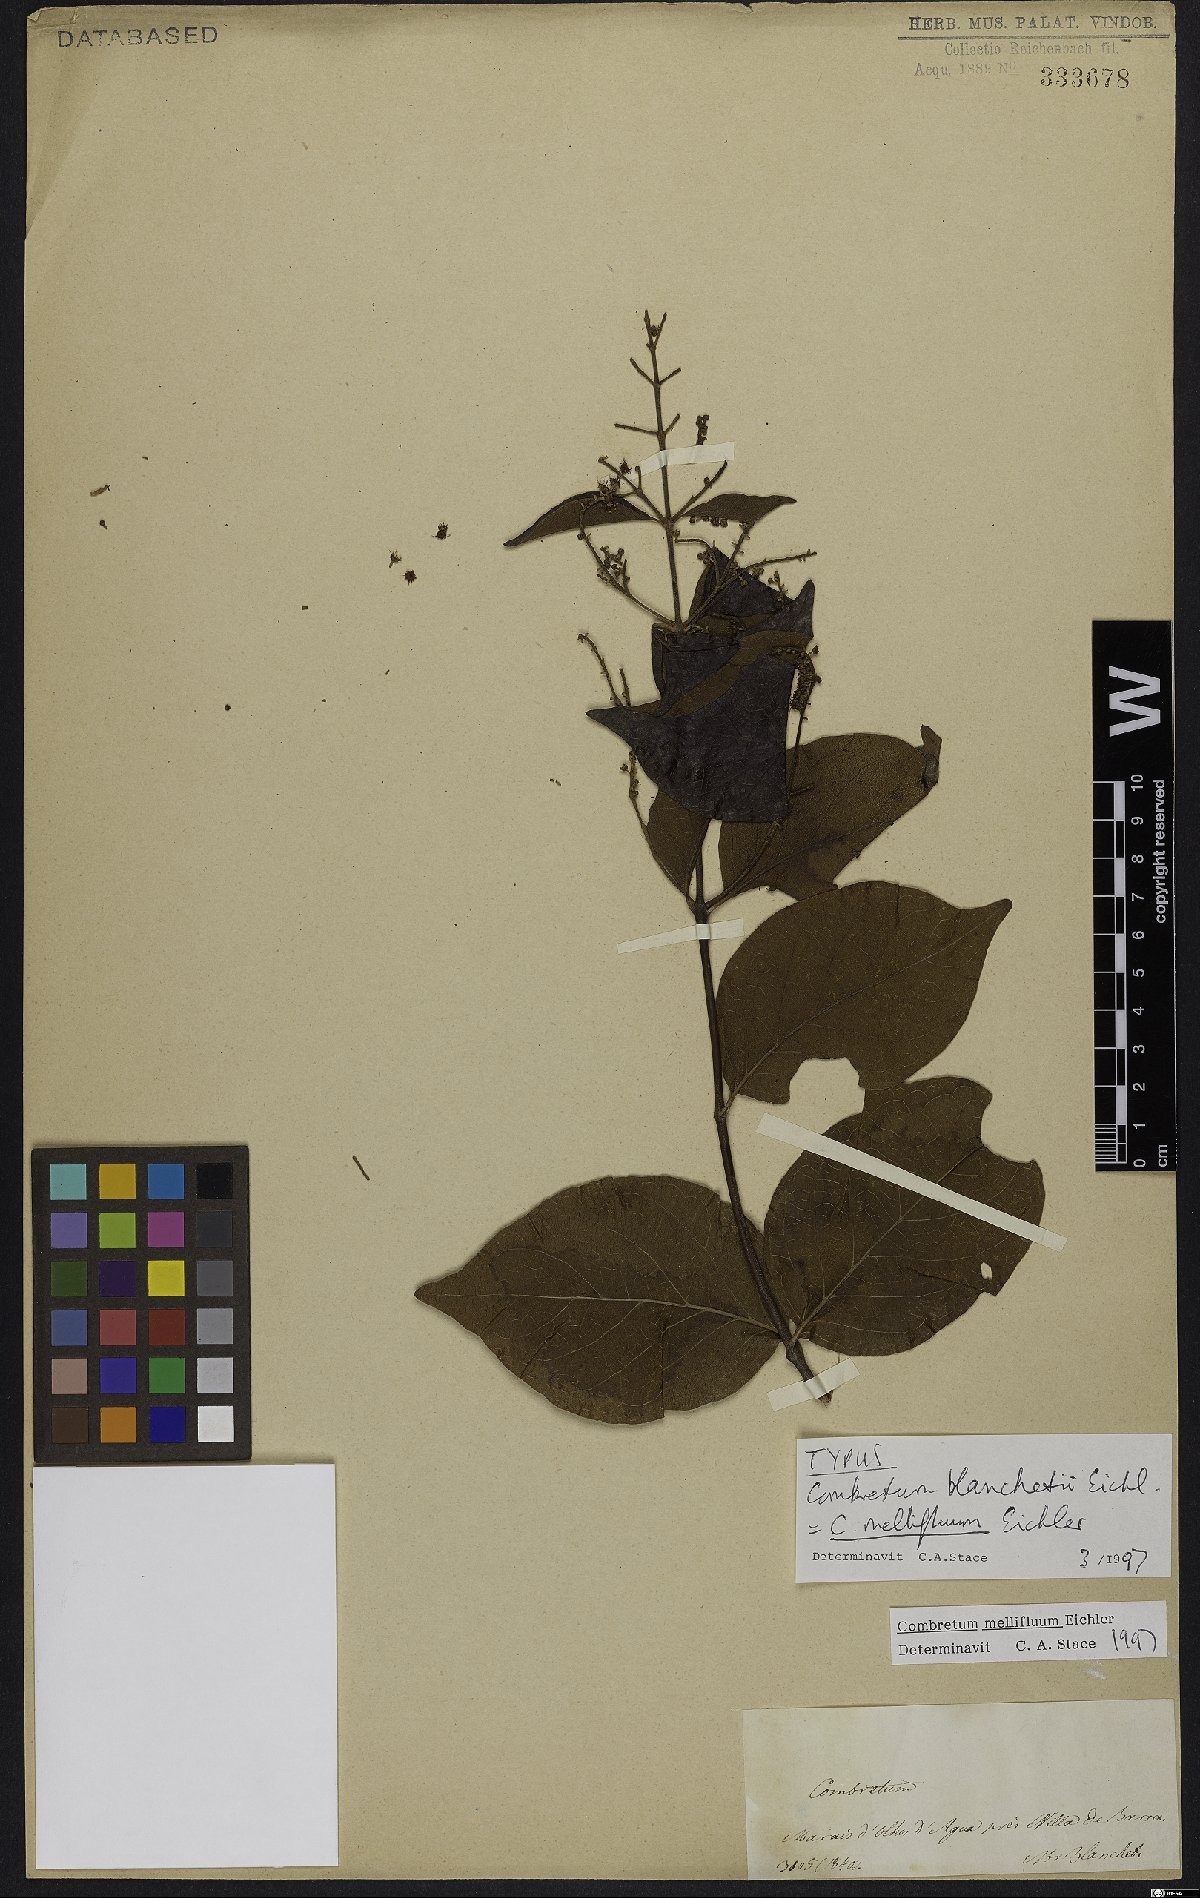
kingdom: Plantae
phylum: Tracheophyta
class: Magnoliopsida
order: Myrtales
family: Combretaceae
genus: Combretum
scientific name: Combretum mellifluum
